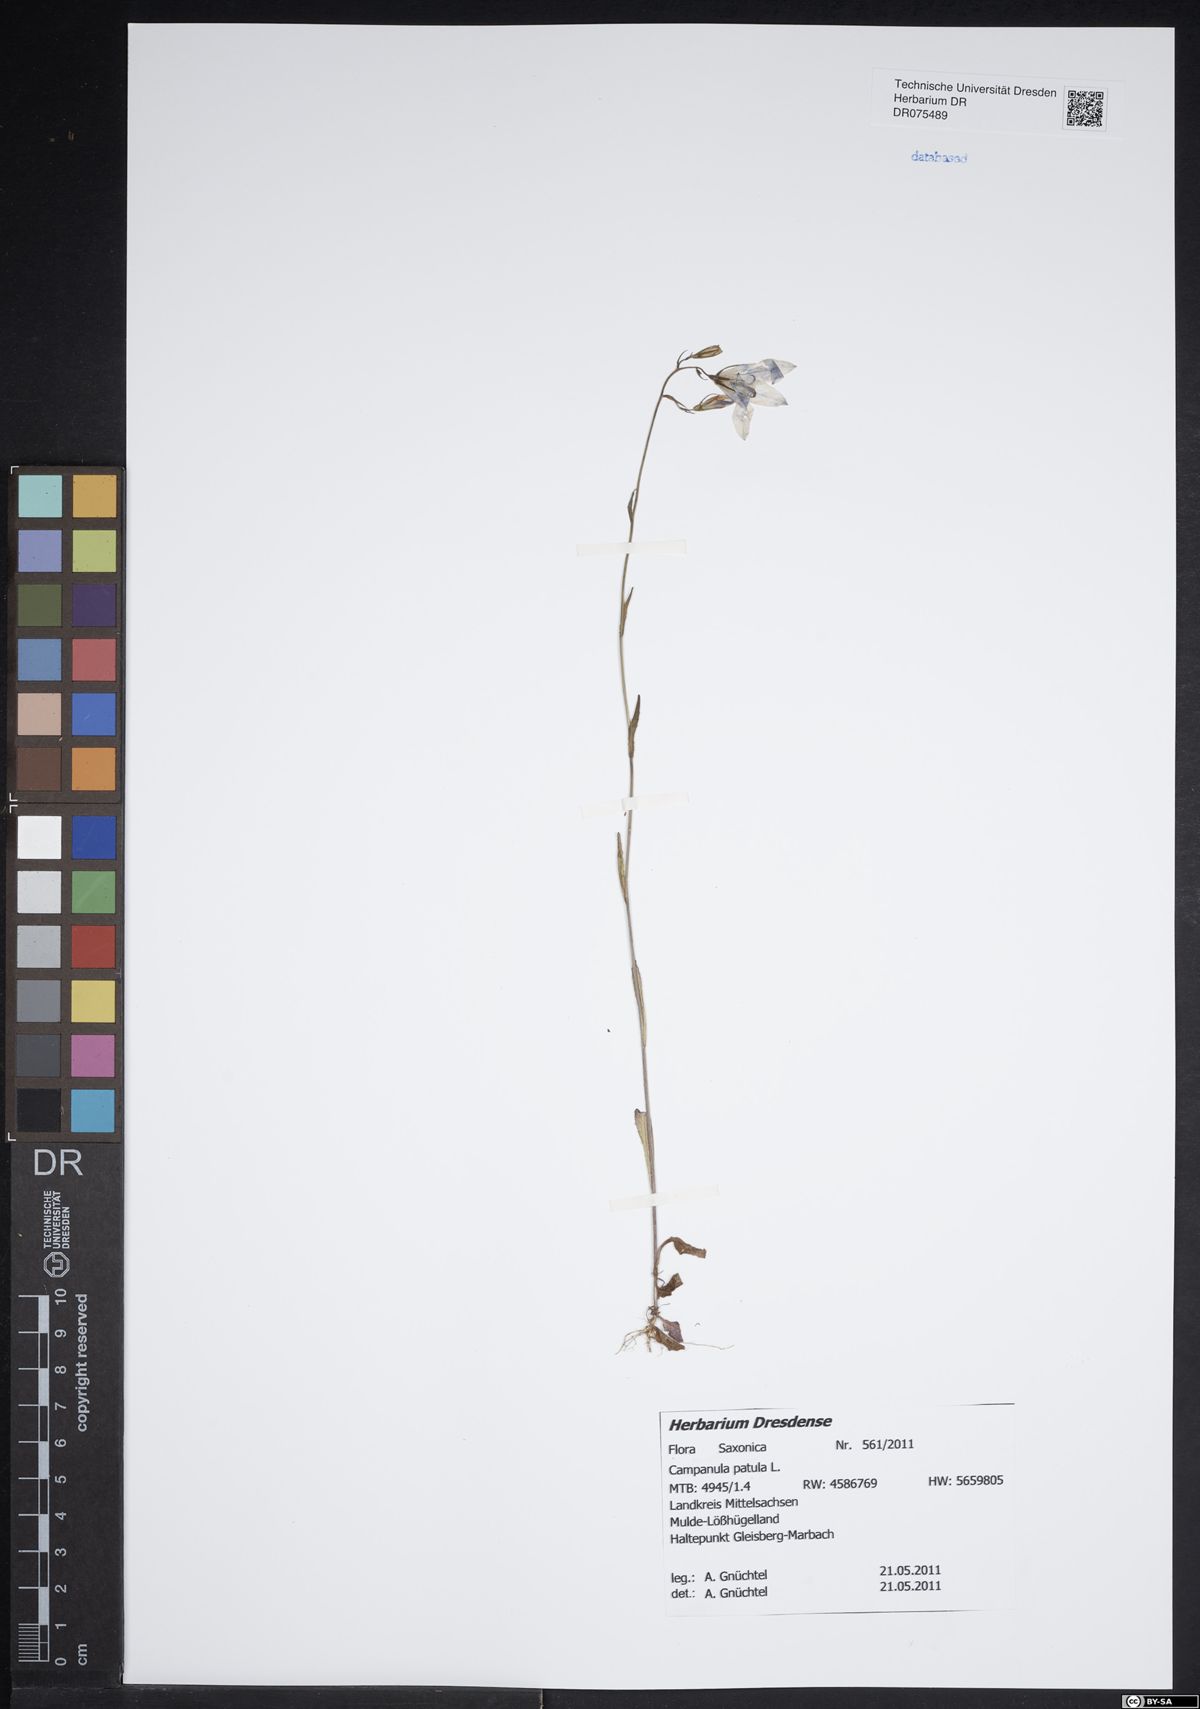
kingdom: Plantae
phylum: Tracheophyta
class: Magnoliopsida
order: Asterales
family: Campanulaceae
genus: Campanula
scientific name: Campanula patula
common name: Spreading bellflower
